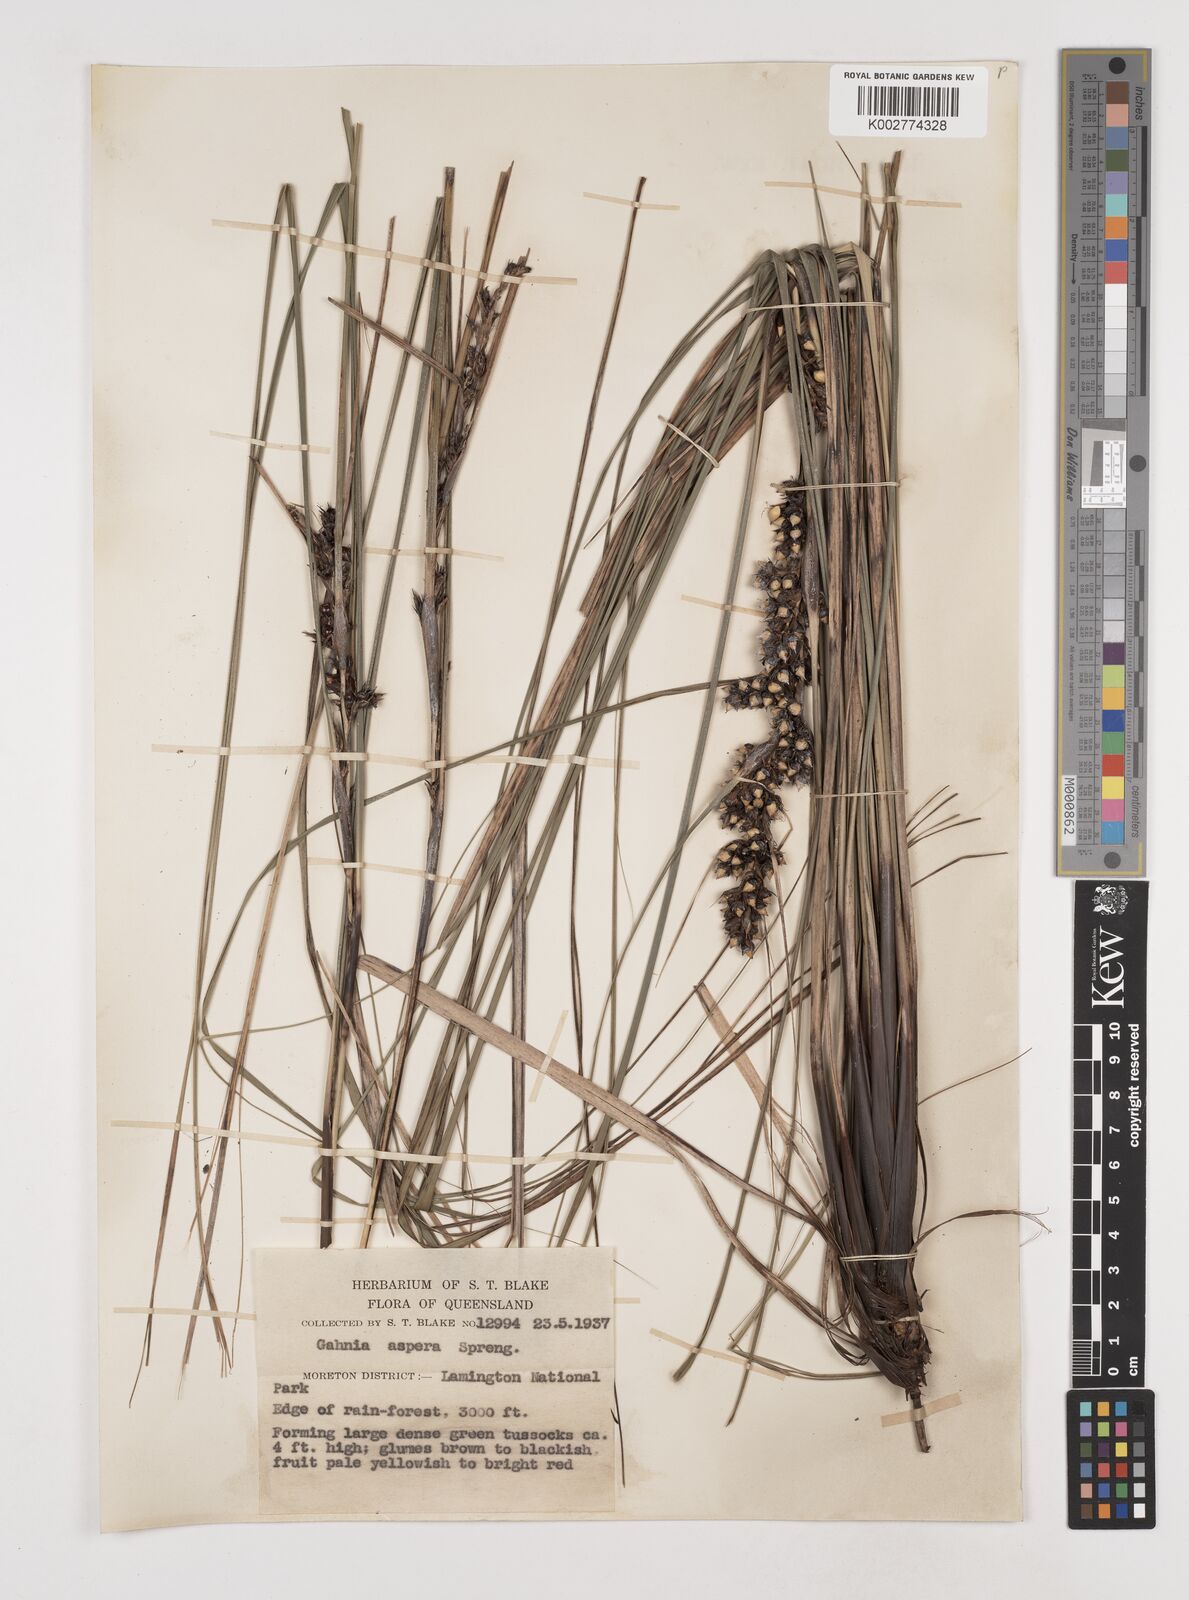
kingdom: Plantae
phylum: Tracheophyta
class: Liliopsida
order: Poales
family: Cyperaceae
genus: Gahnia
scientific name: Gahnia aspera
